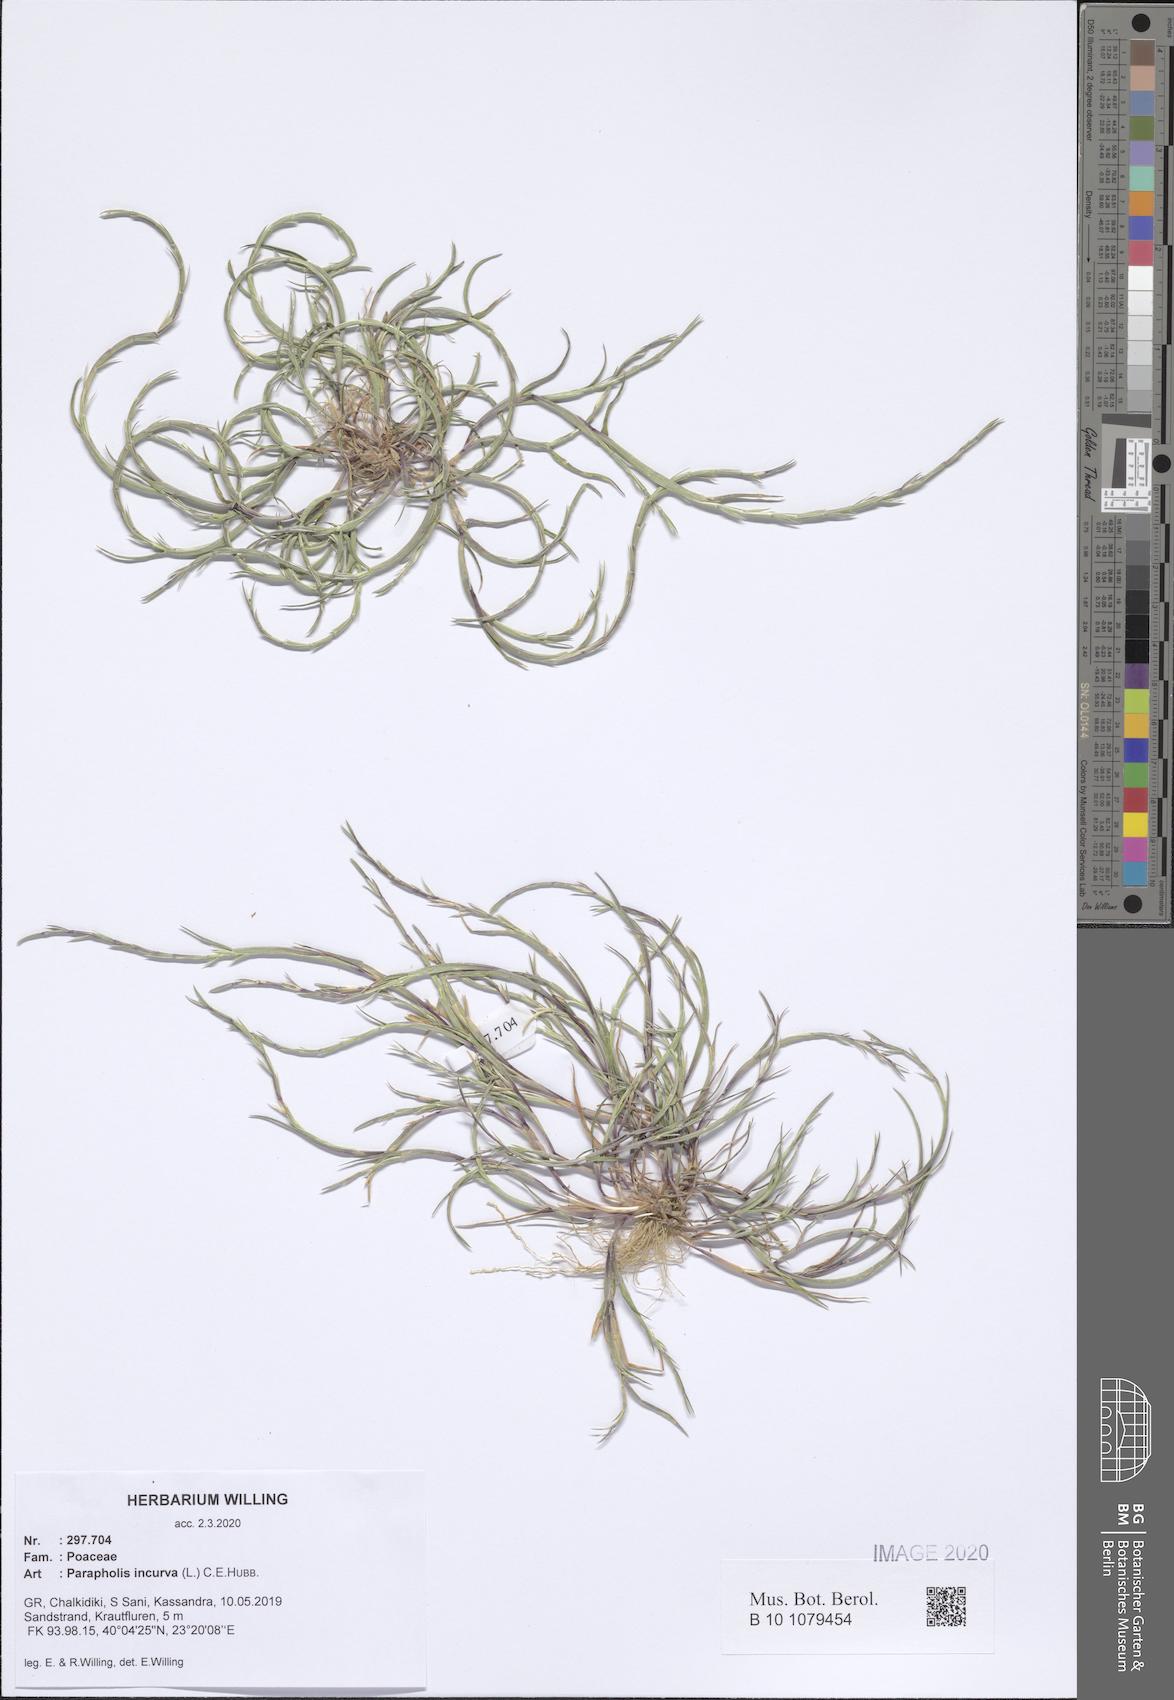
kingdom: Plantae
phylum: Tracheophyta
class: Liliopsida
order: Poales
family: Poaceae
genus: Parapholis
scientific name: Parapholis incurva
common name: Curved sicklegrass
